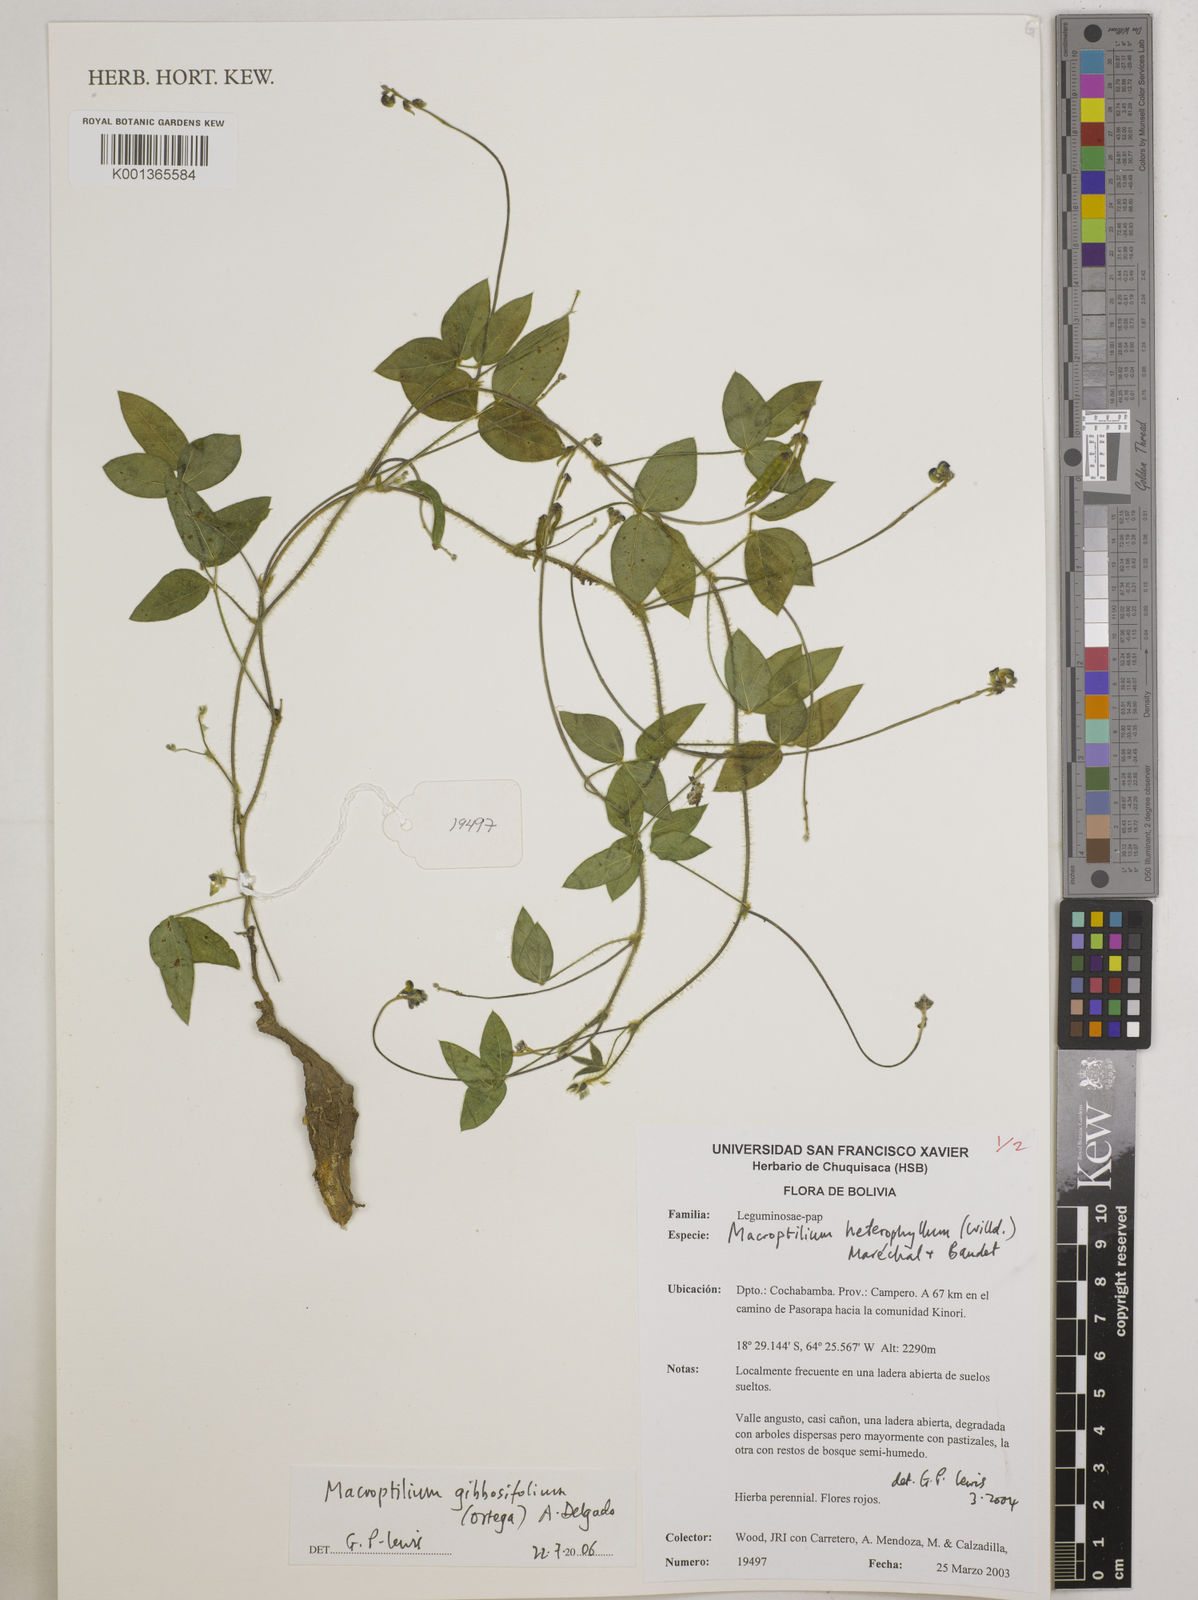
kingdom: Plantae
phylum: Tracheophyta
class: Magnoliopsida
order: Fabales
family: Fabaceae
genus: Macroptilium
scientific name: Macroptilium gibbosifolium
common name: Variableleaf bushbean
